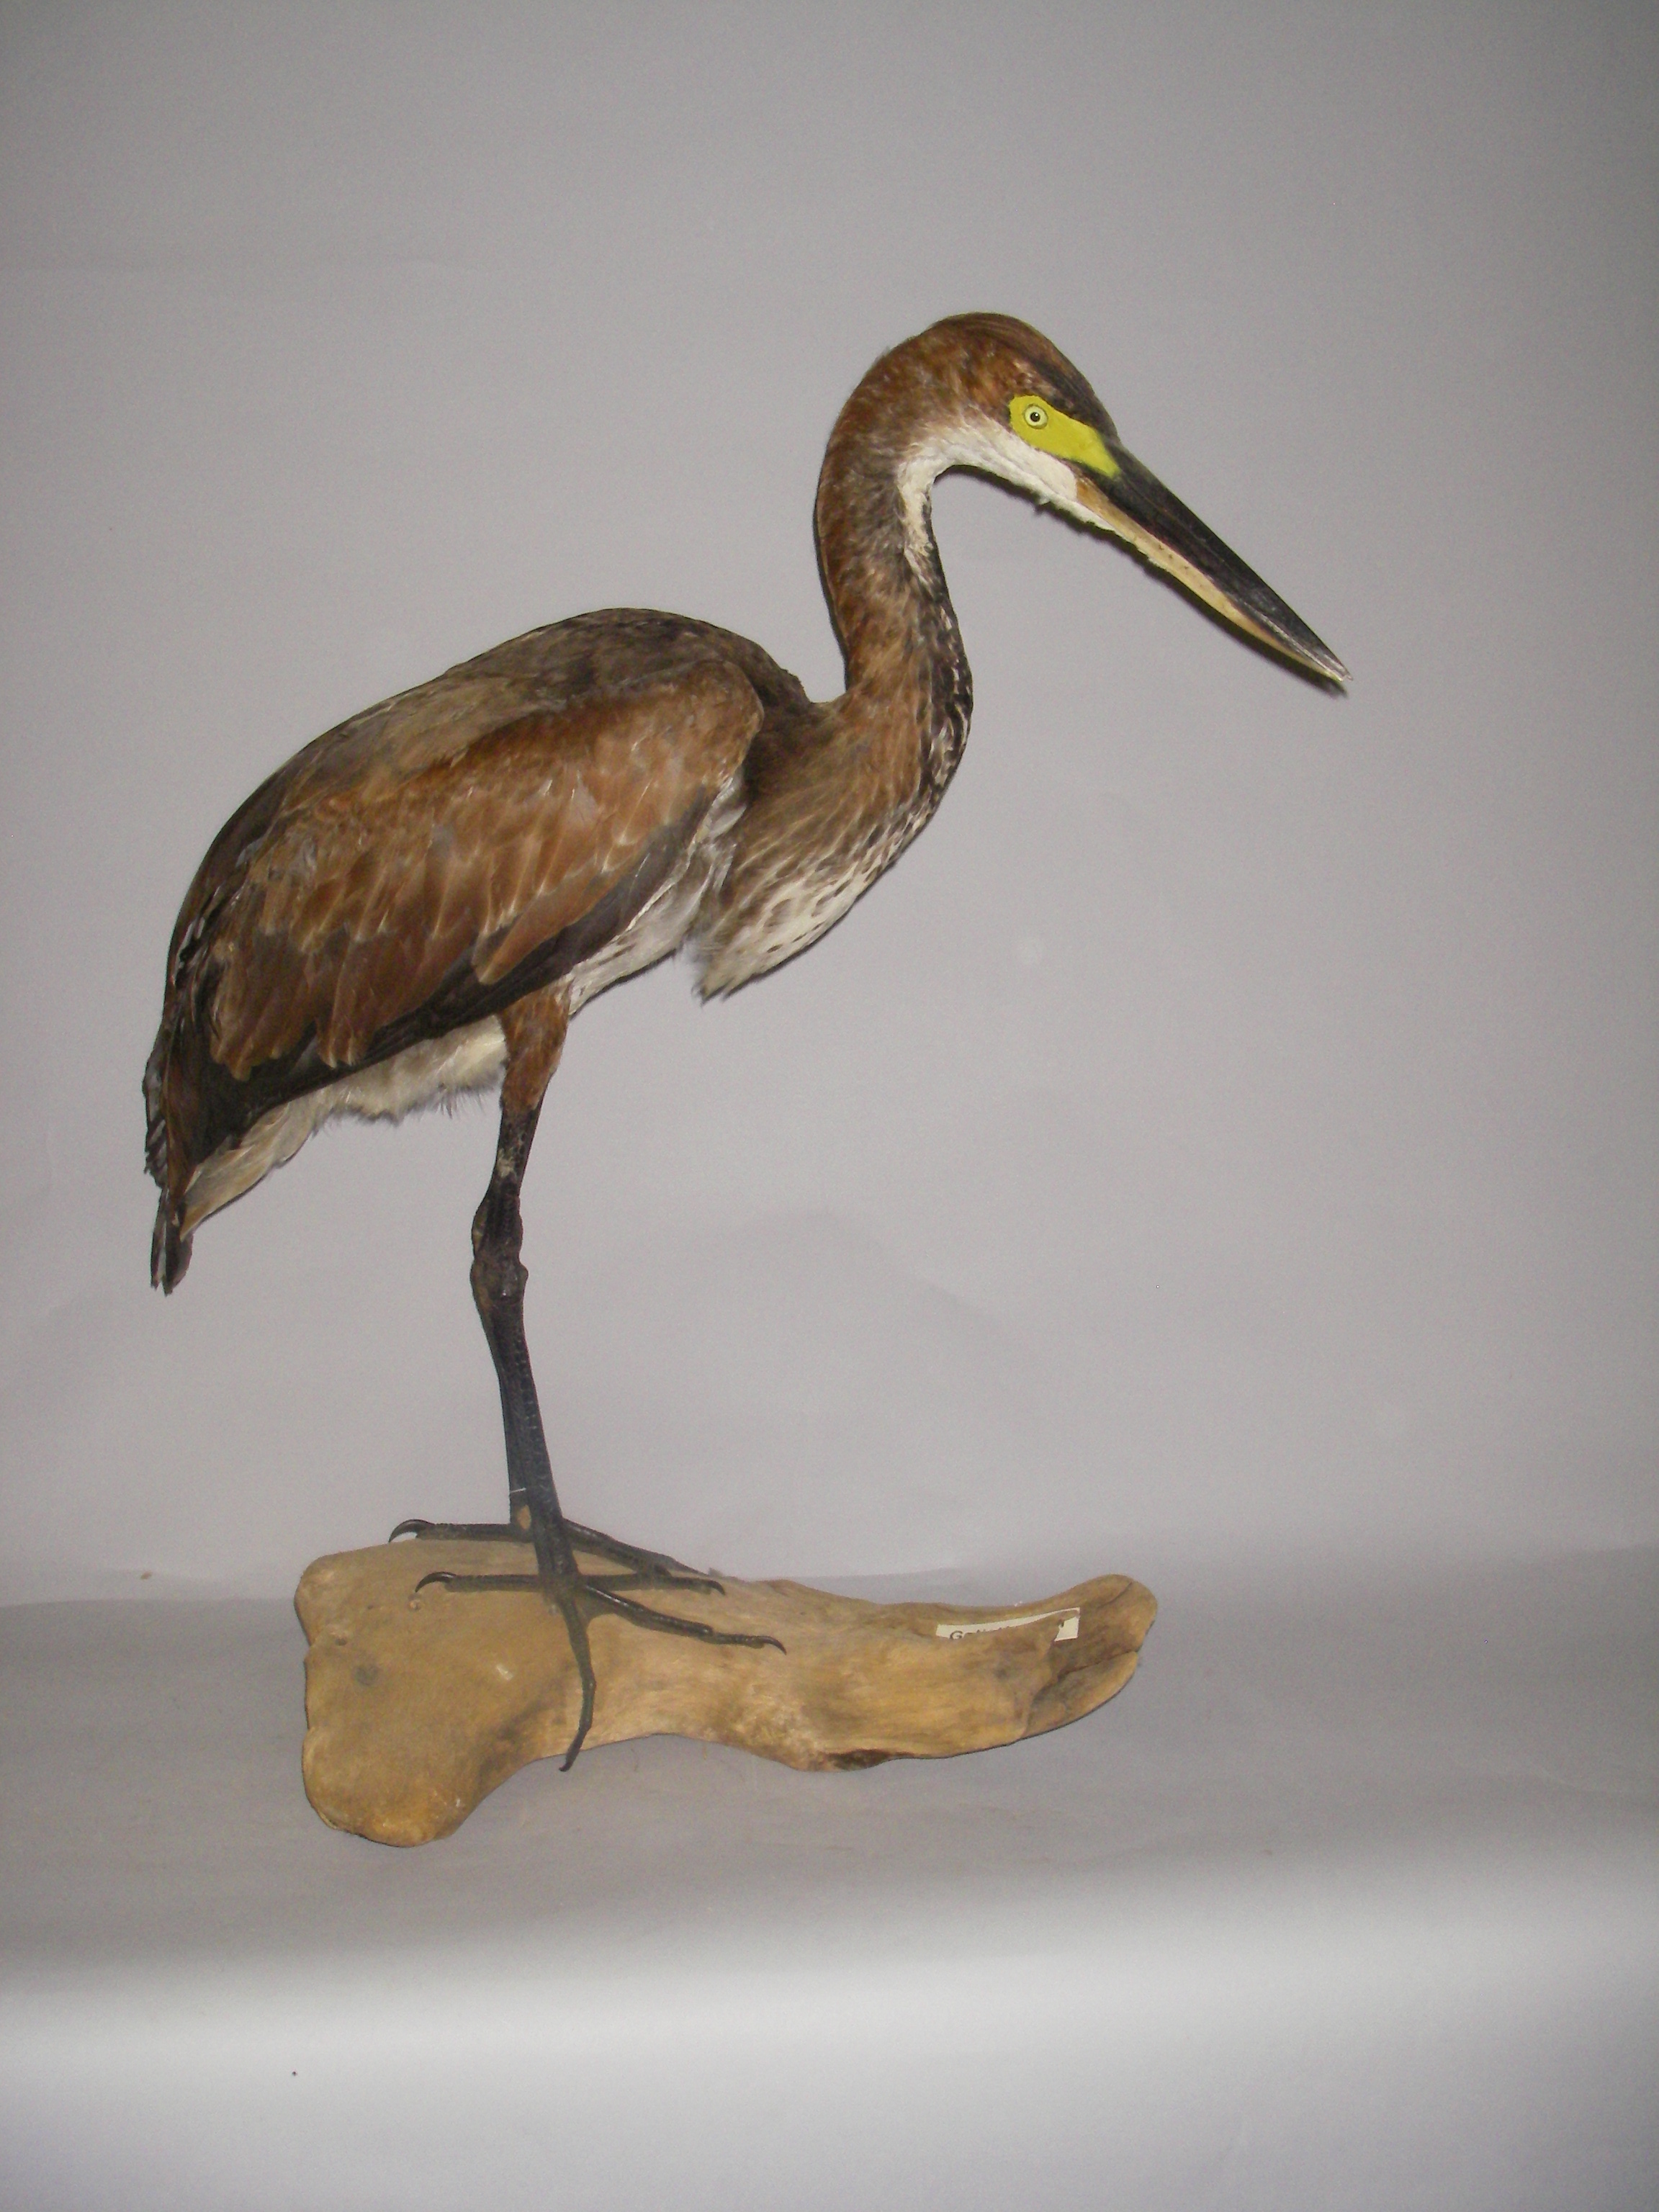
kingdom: Animalia
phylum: Chordata
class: Aves
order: Pelecaniformes
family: Ardeidae
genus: Ardea
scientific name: Ardea goliath
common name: Goliath heron
